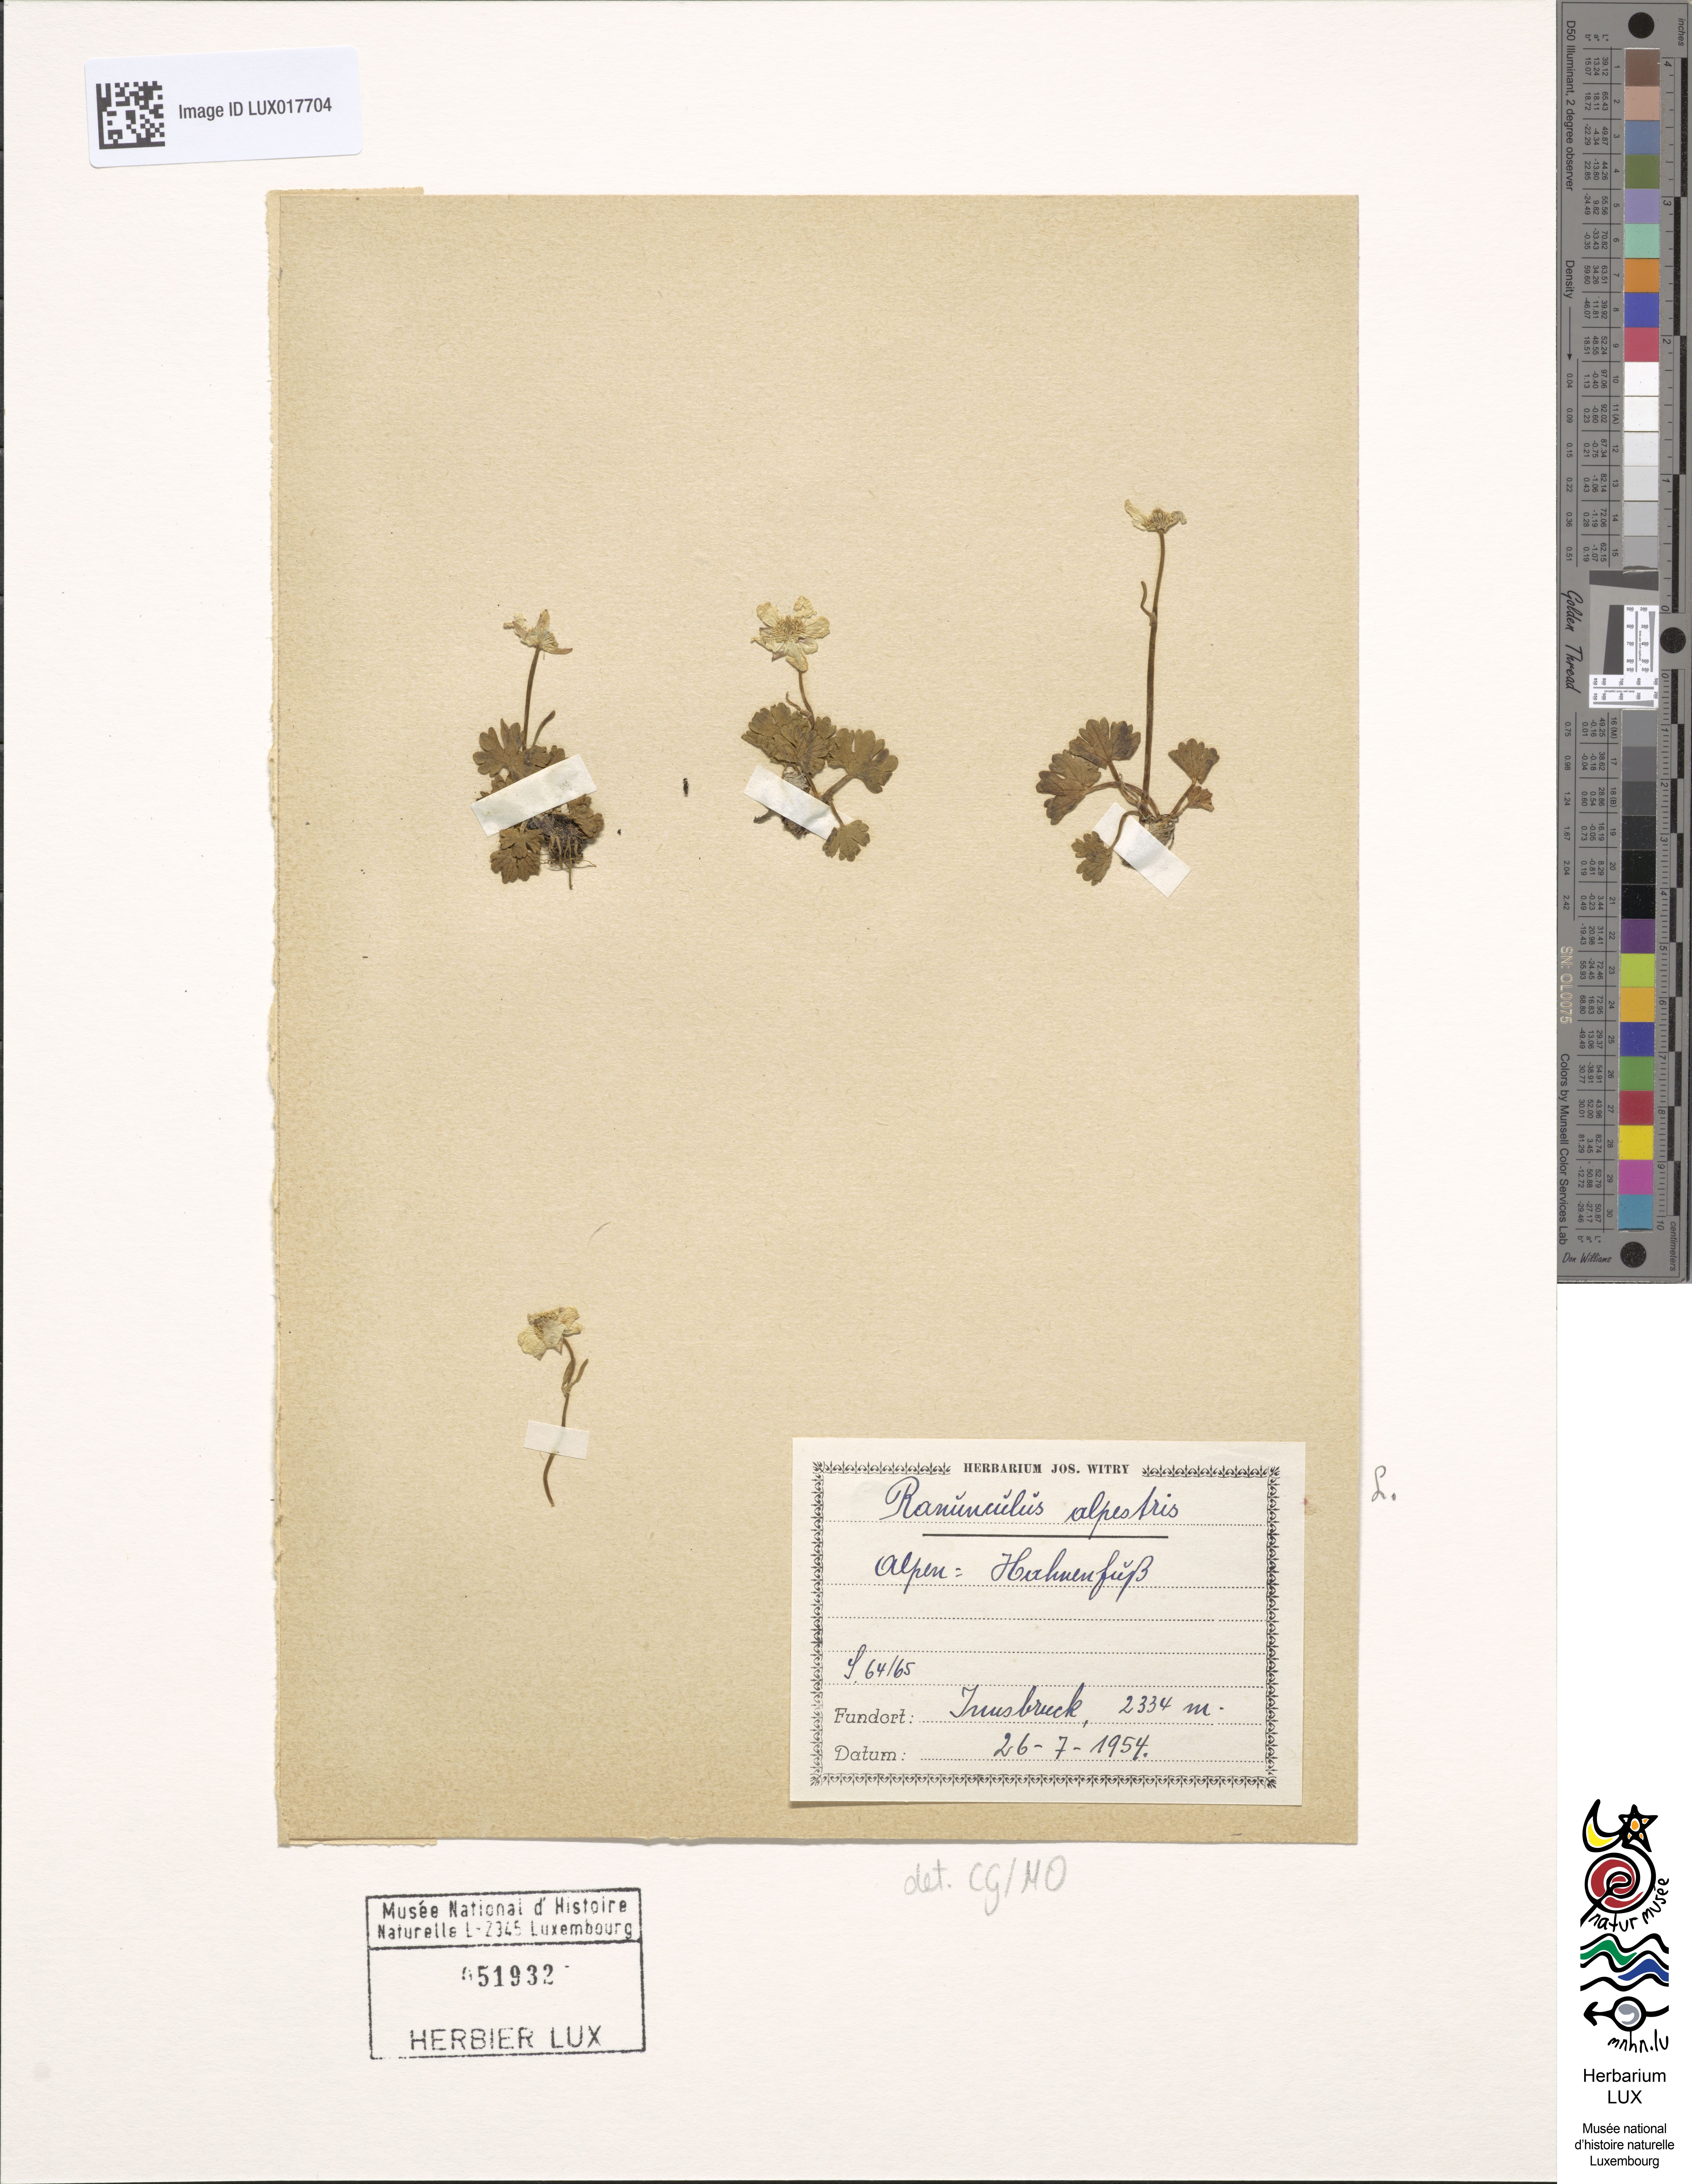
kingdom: Plantae
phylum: Tracheophyta
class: Magnoliopsida
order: Ranunculales
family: Ranunculaceae
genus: Ranunculus
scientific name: Ranunculus alpestris
